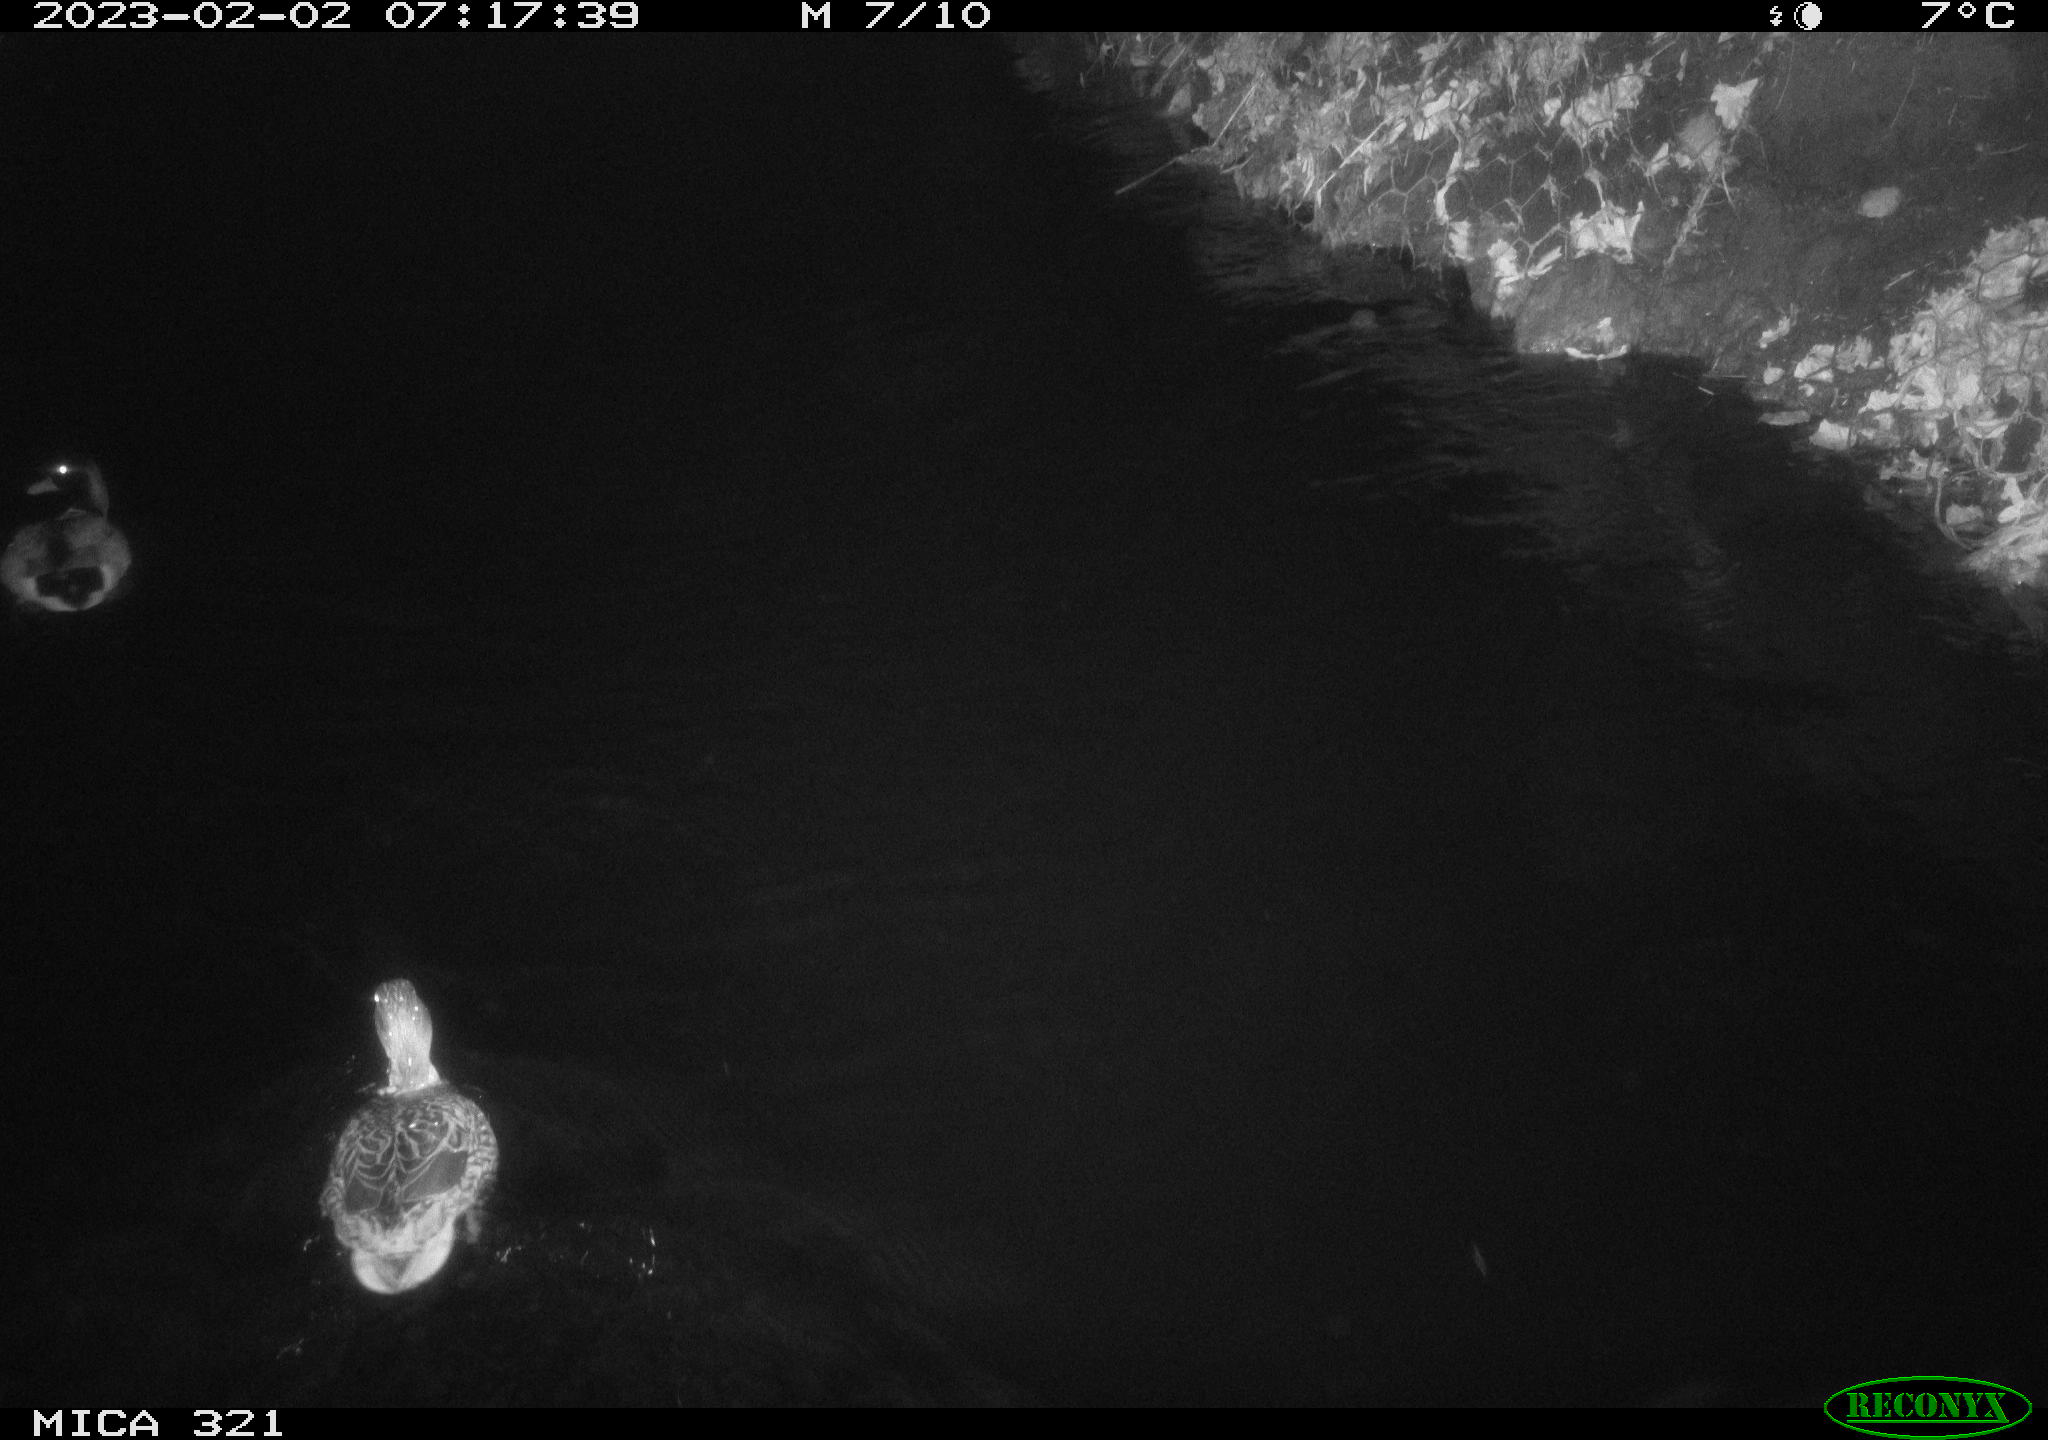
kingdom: Animalia
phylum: Chordata
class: Aves
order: Anseriformes
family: Anatidae
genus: Anas
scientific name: Anas
